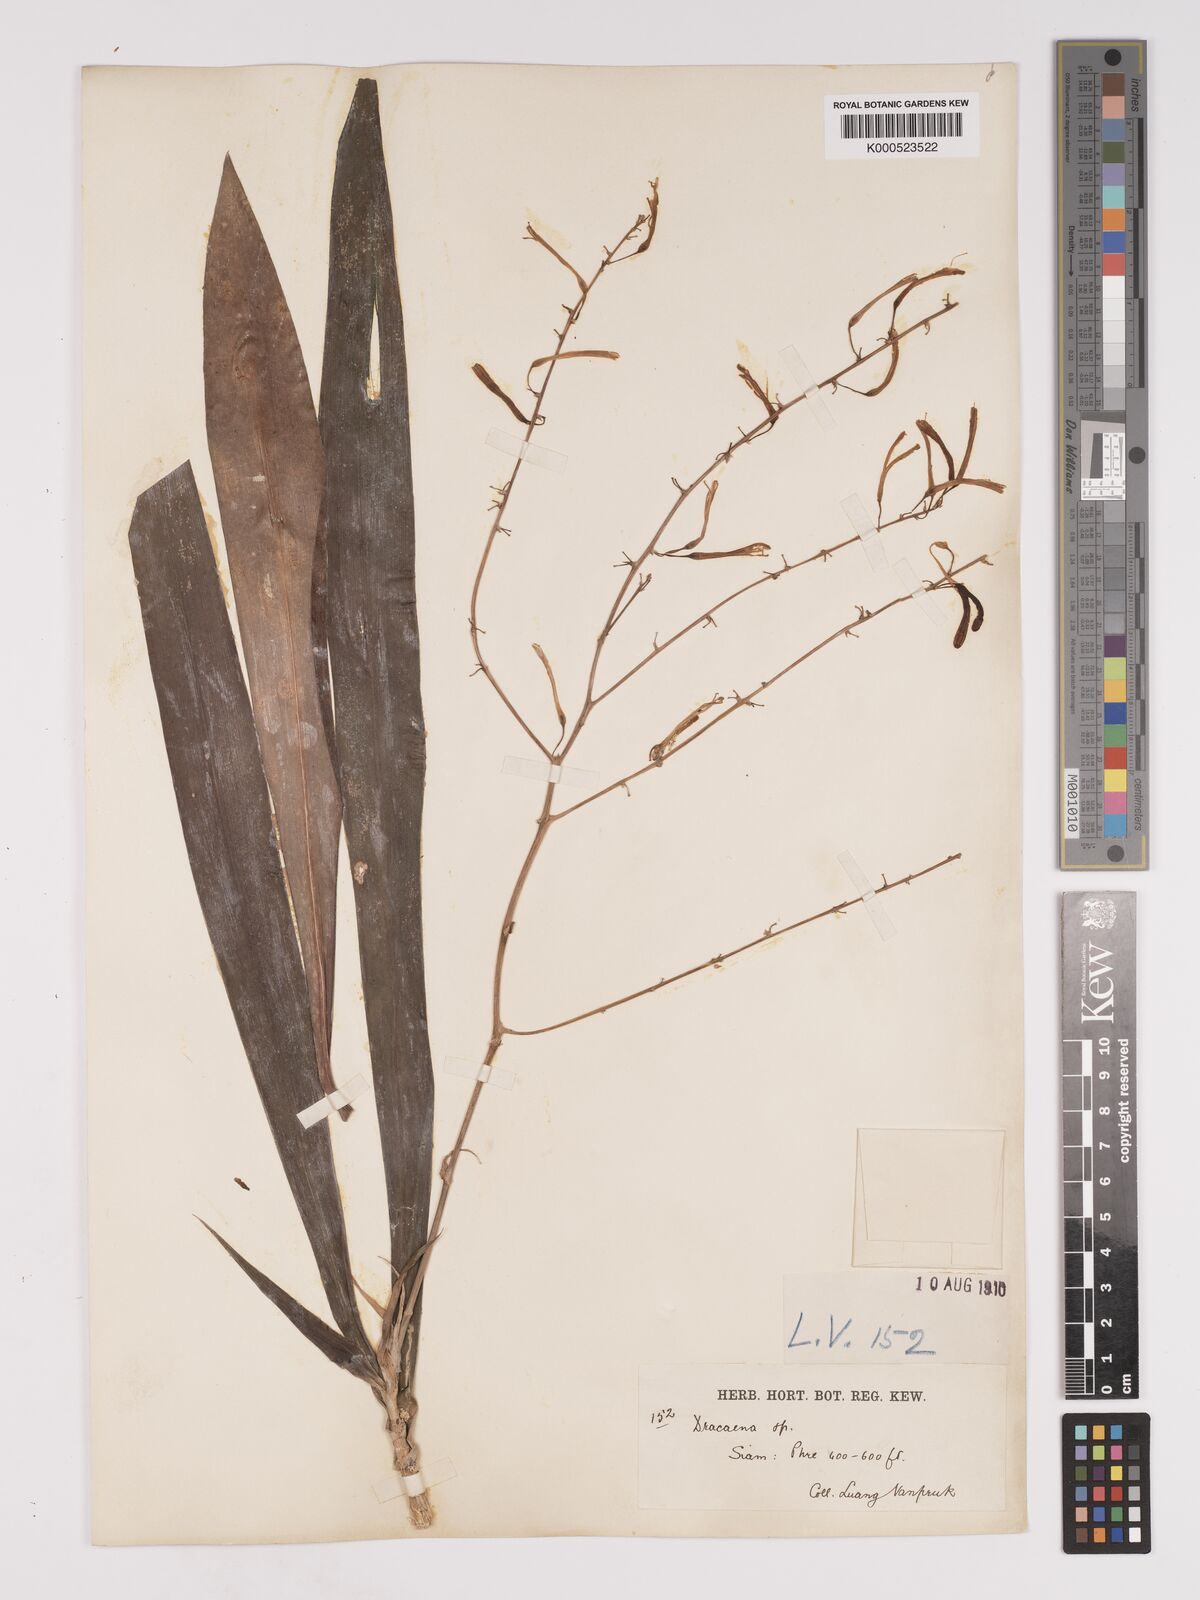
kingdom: Plantae
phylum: Tracheophyta
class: Liliopsida
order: Asparagales
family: Asparagaceae
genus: Dracaena
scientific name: Dracaena
